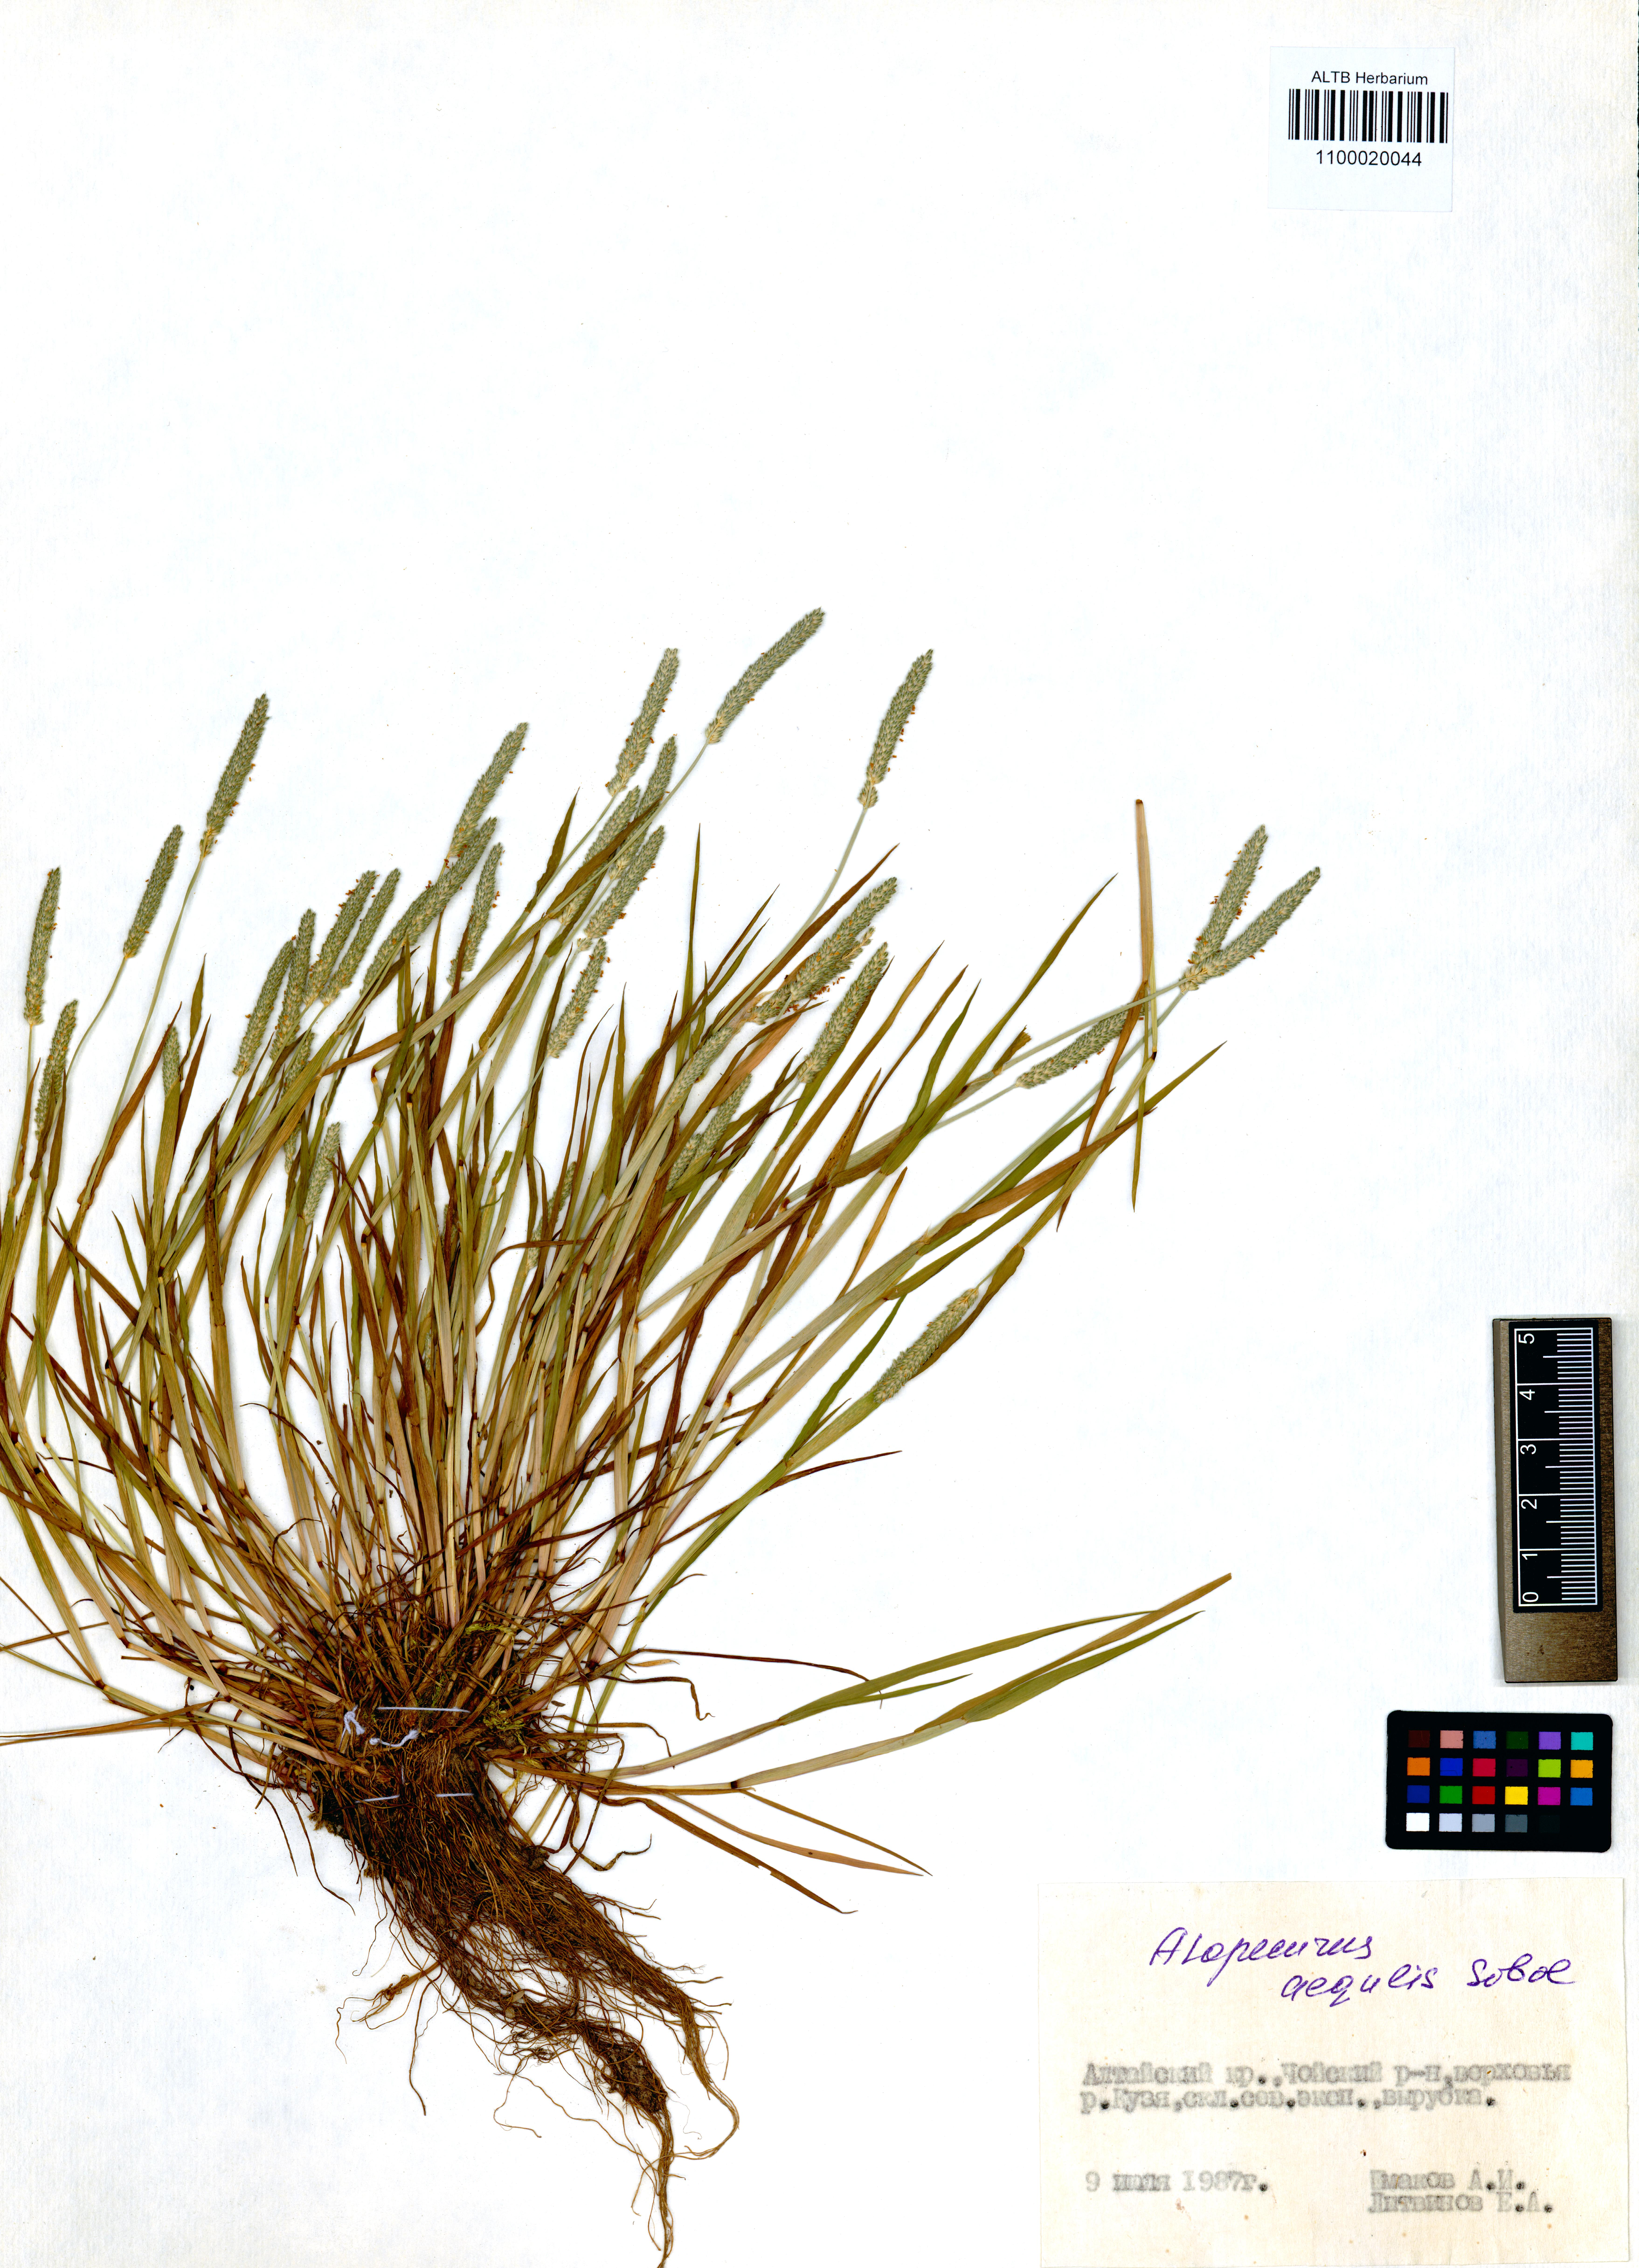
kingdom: Plantae
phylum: Tracheophyta
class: Liliopsida
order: Poales
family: Poaceae
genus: Alopecurus
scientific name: Alopecurus aequalis
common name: Orange foxtail
